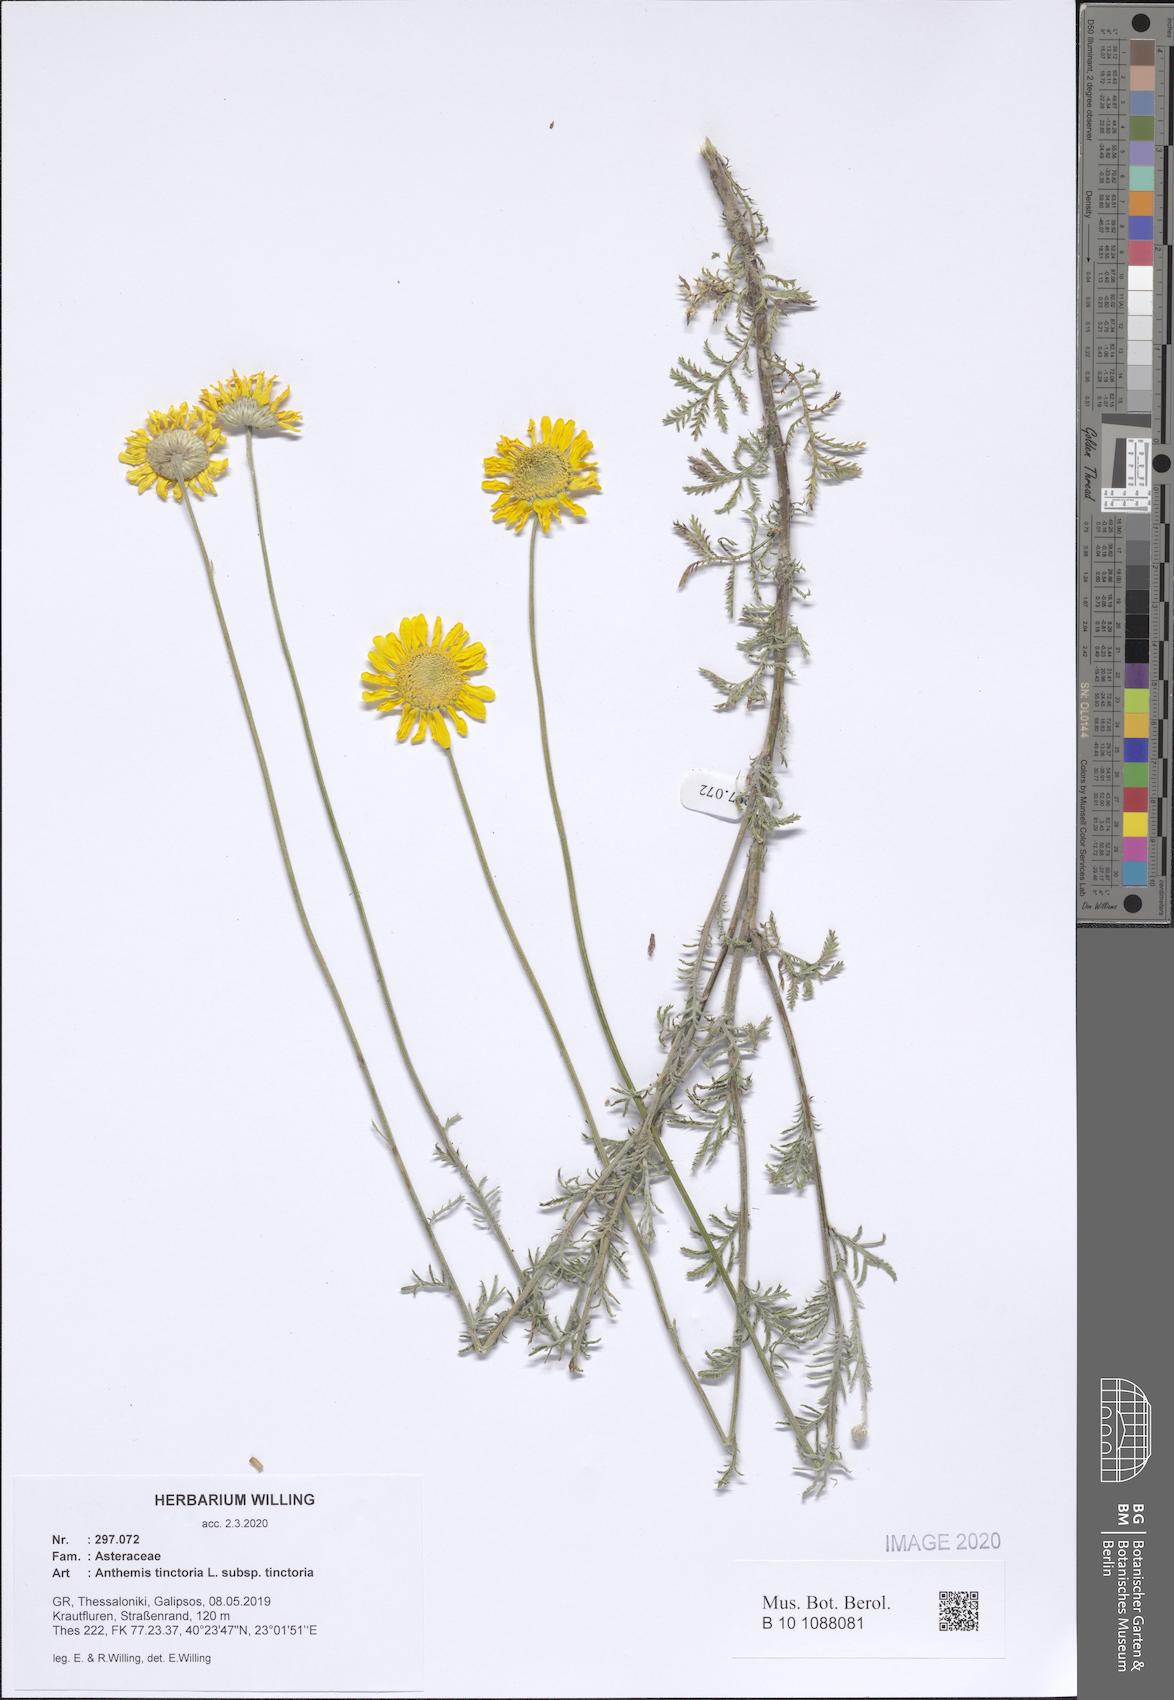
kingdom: Plantae
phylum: Tracheophyta
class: Magnoliopsida
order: Asterales
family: Asteraceae
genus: Cota
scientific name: Cota tinctoria
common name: Golden chamomile
